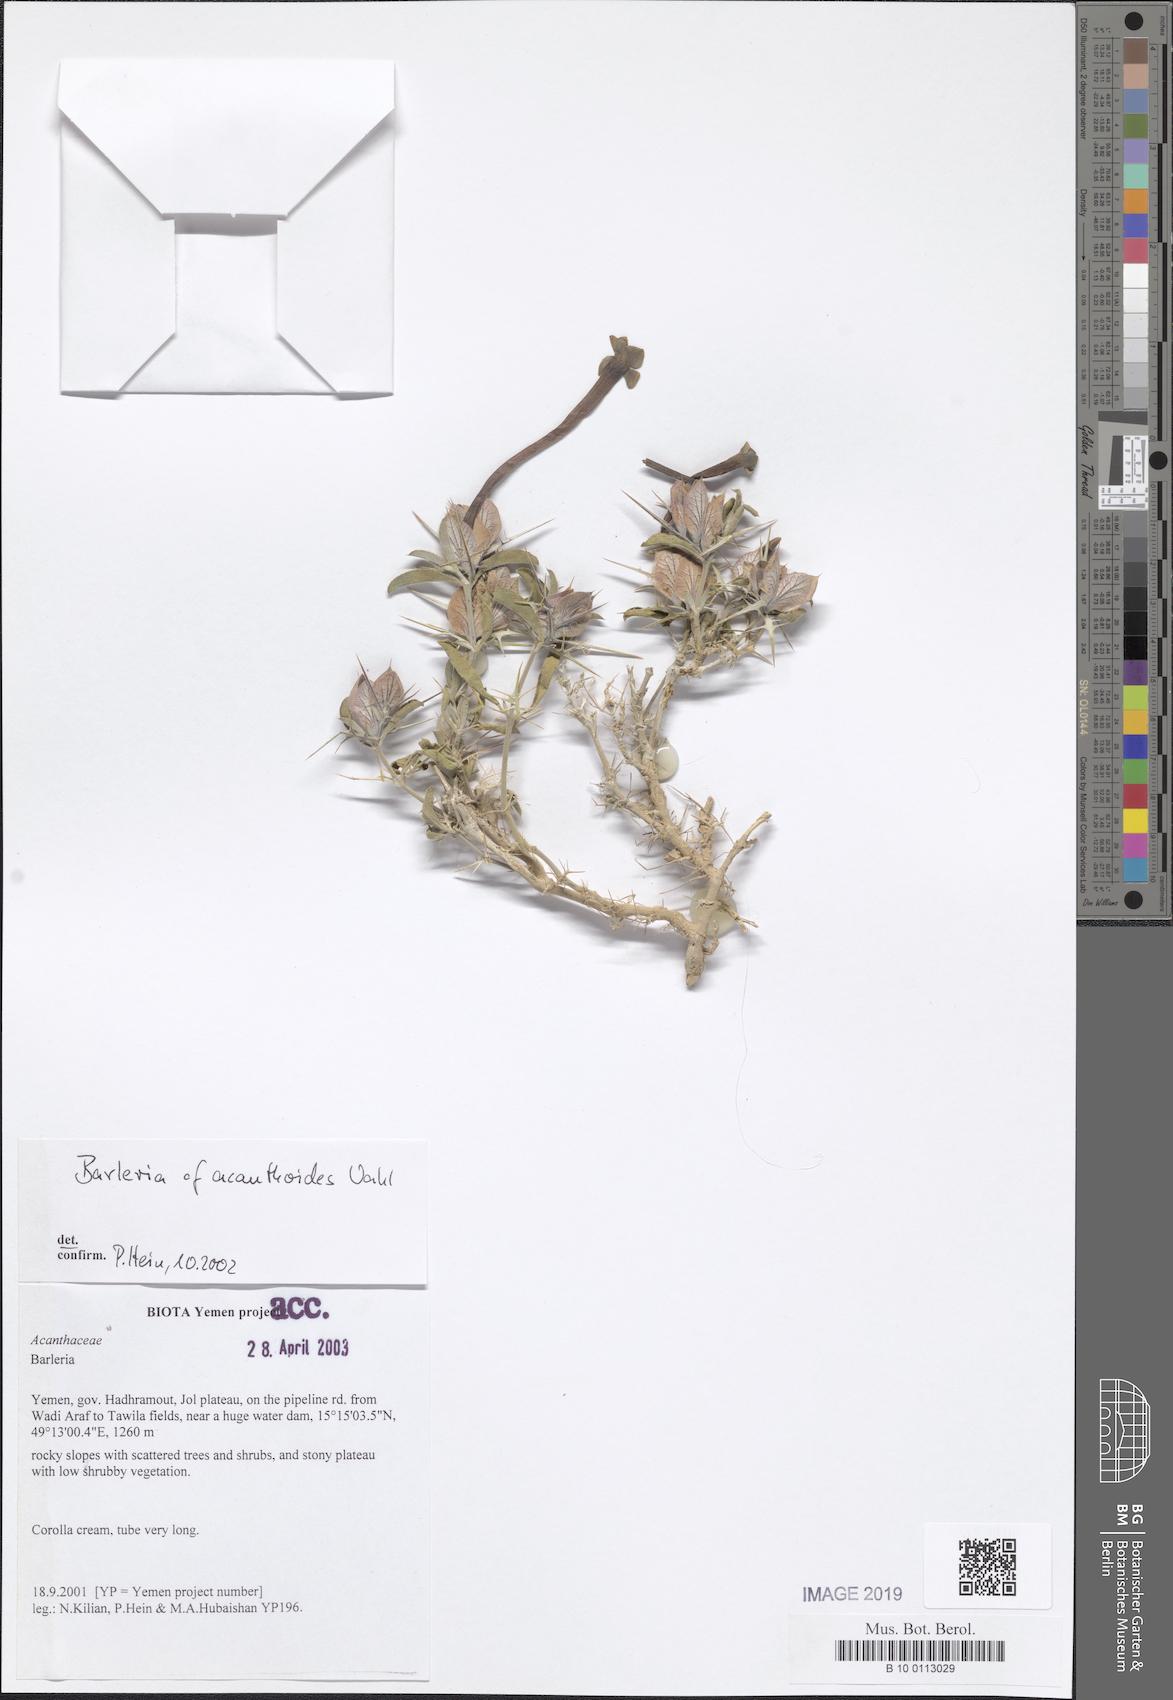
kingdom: Plantae
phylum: Tracheophyta
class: Magnoliopsida
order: Lamiales
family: Acanthaceae
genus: Barleria
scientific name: Barleria acanthoides
